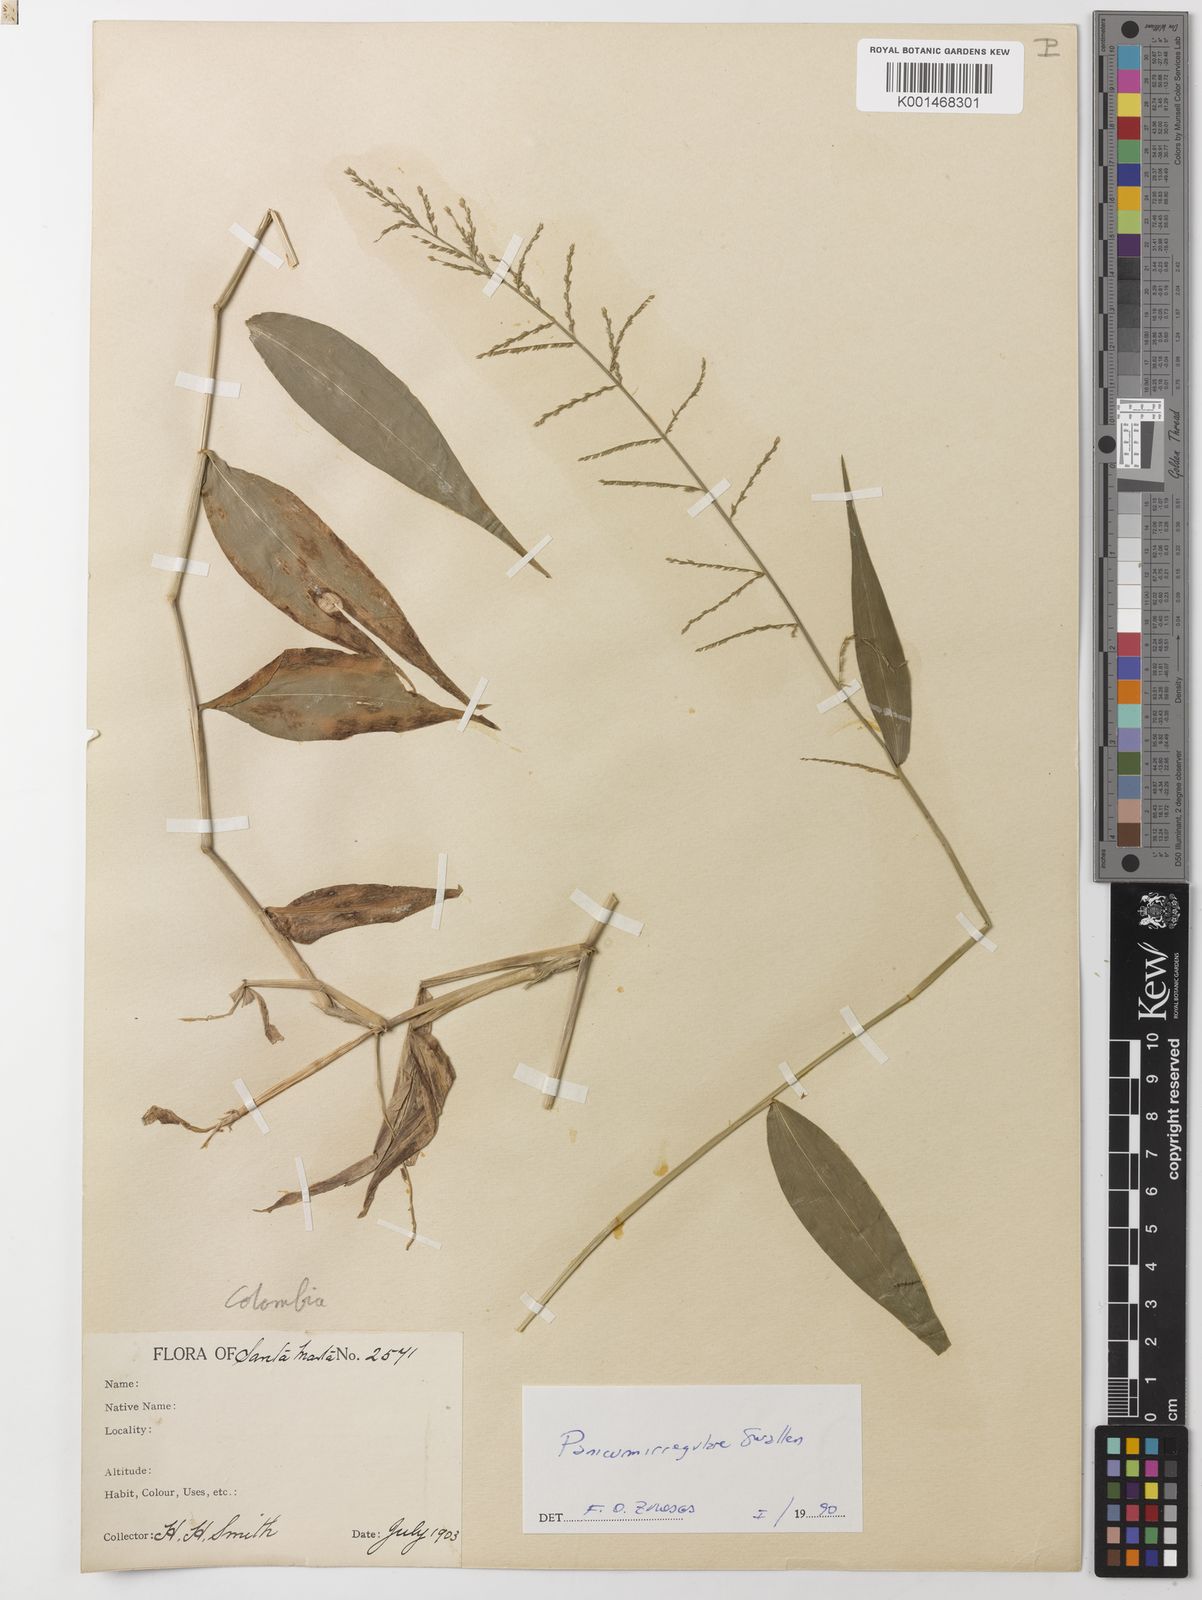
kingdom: Plantae
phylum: Tracheophyta
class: Liliopsida
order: Poales
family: Poaceae
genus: Ocellochloa
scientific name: Ocellochloa irregularis
